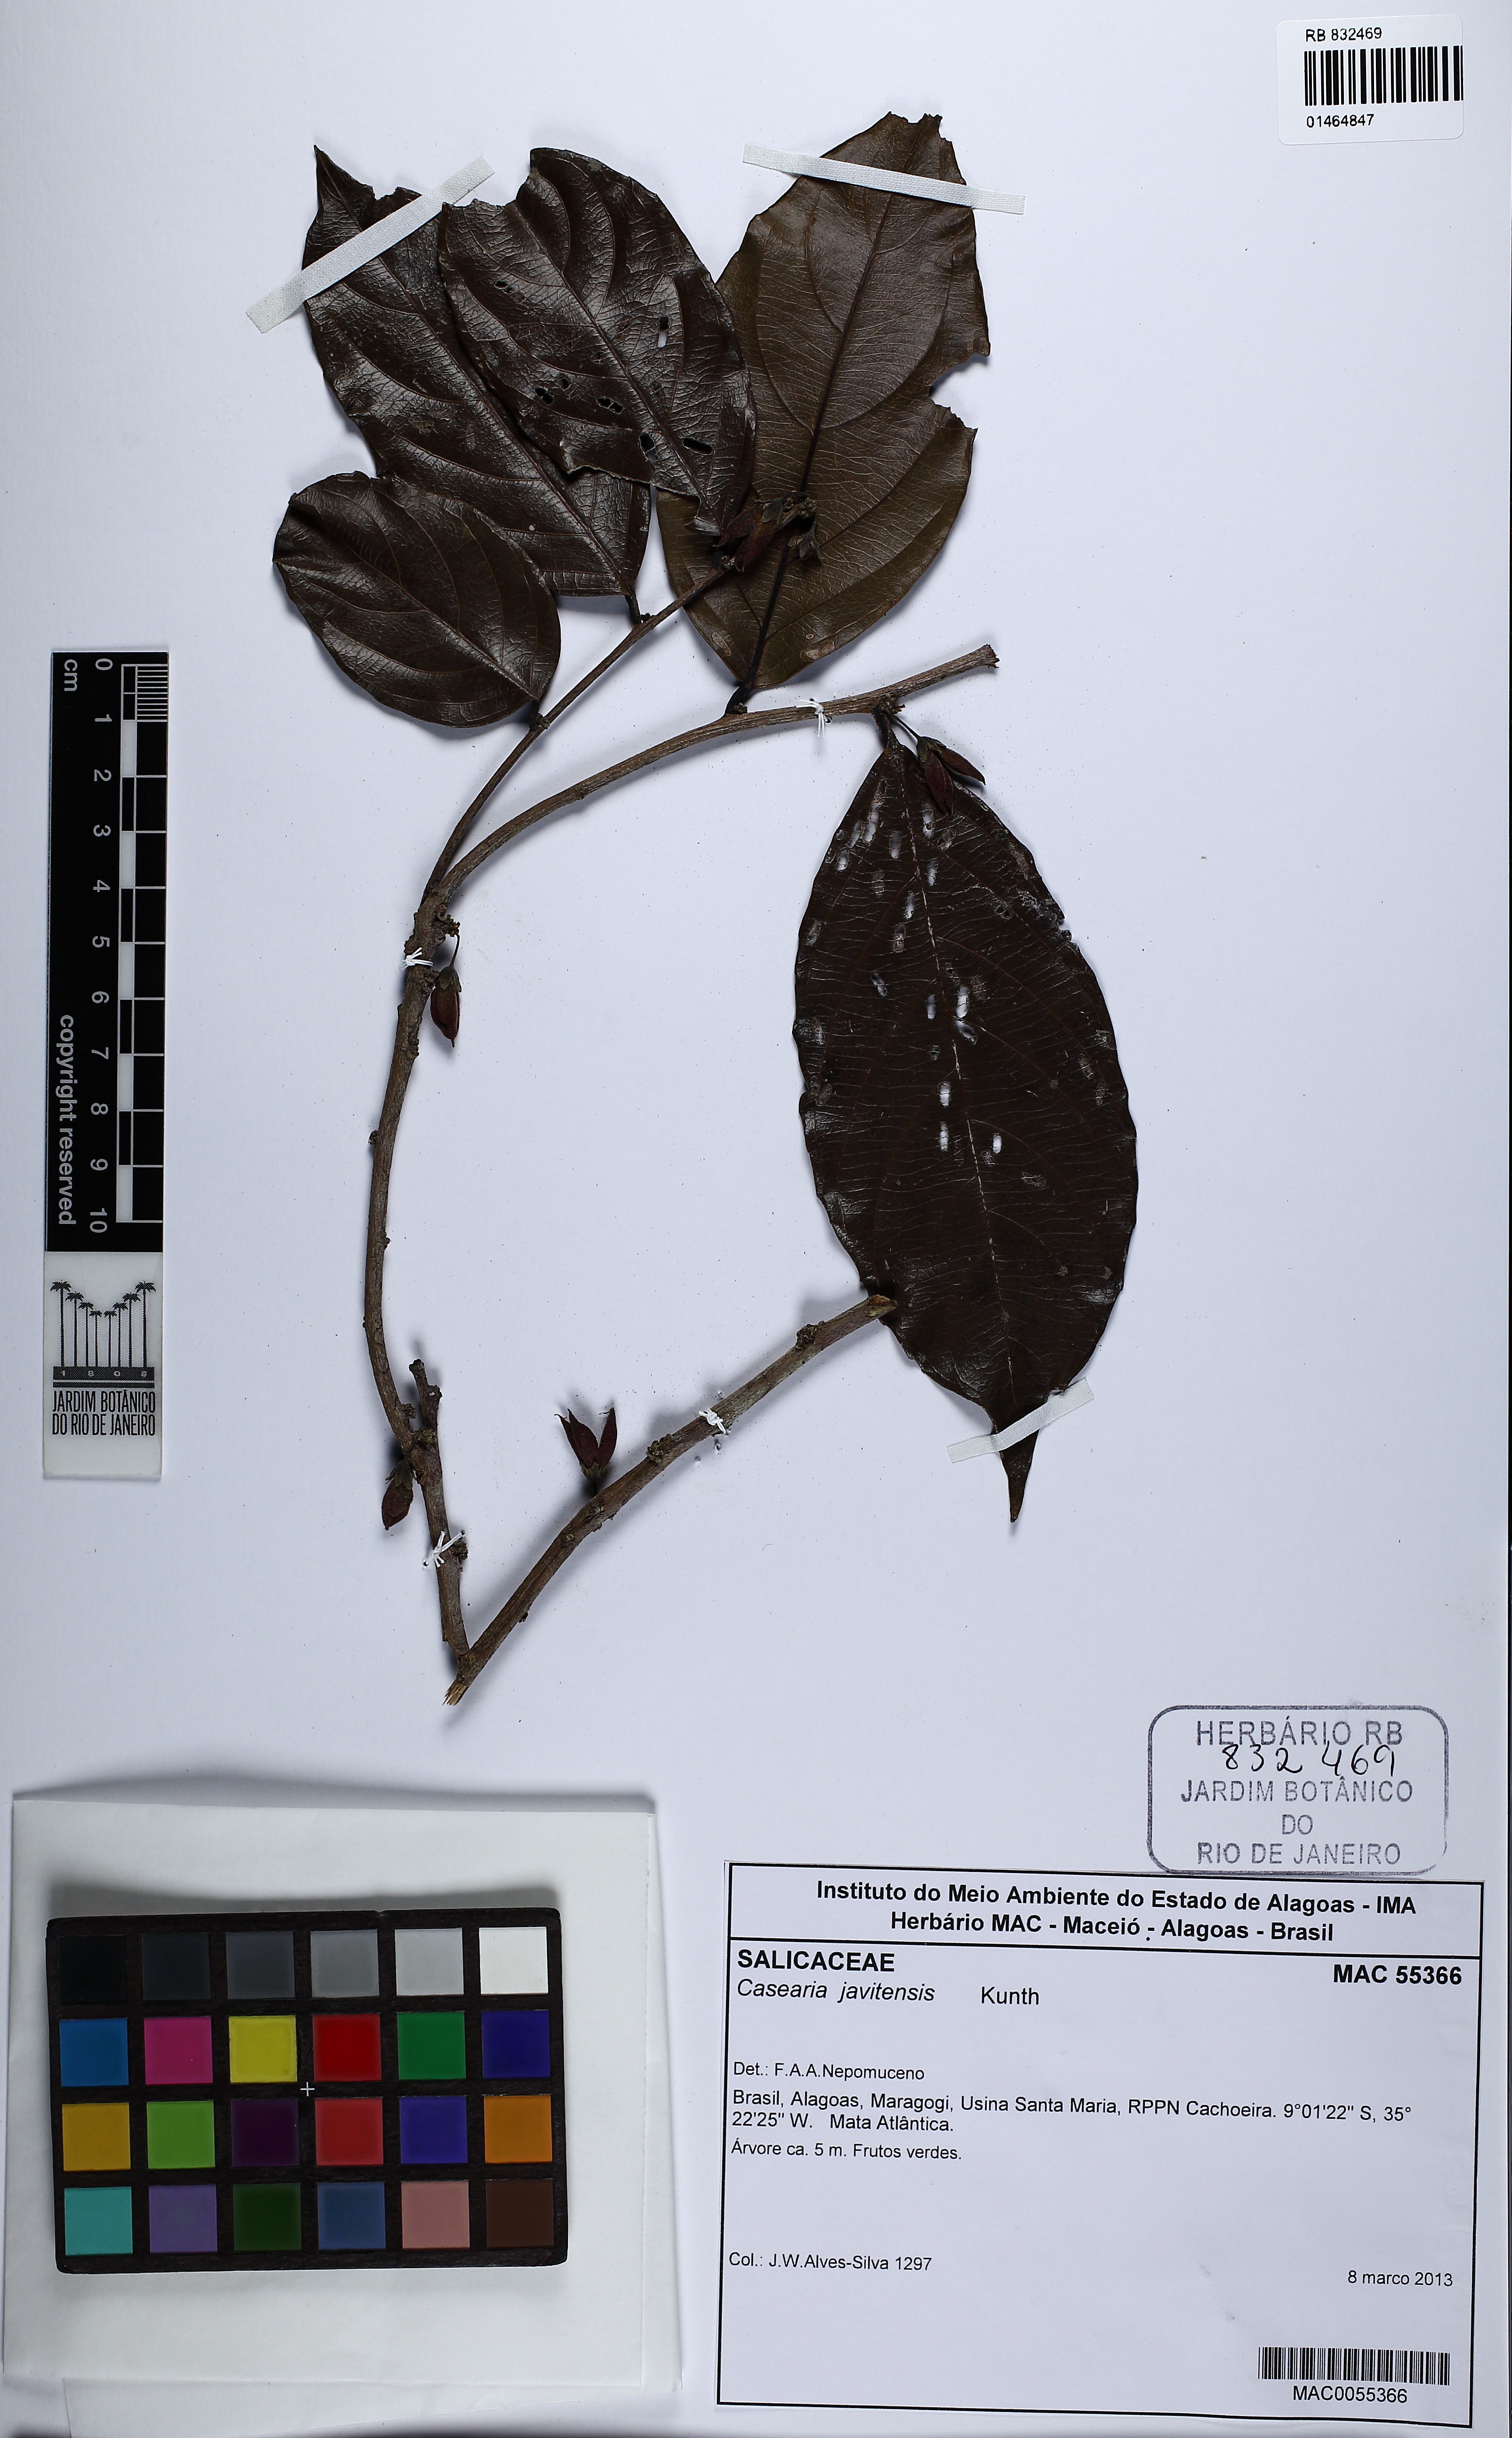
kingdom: Plantae
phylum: Tracheophyta
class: Magnoliopsida
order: Malpighiales
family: Salicaceae
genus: Piparea
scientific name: Piparea multiflora
